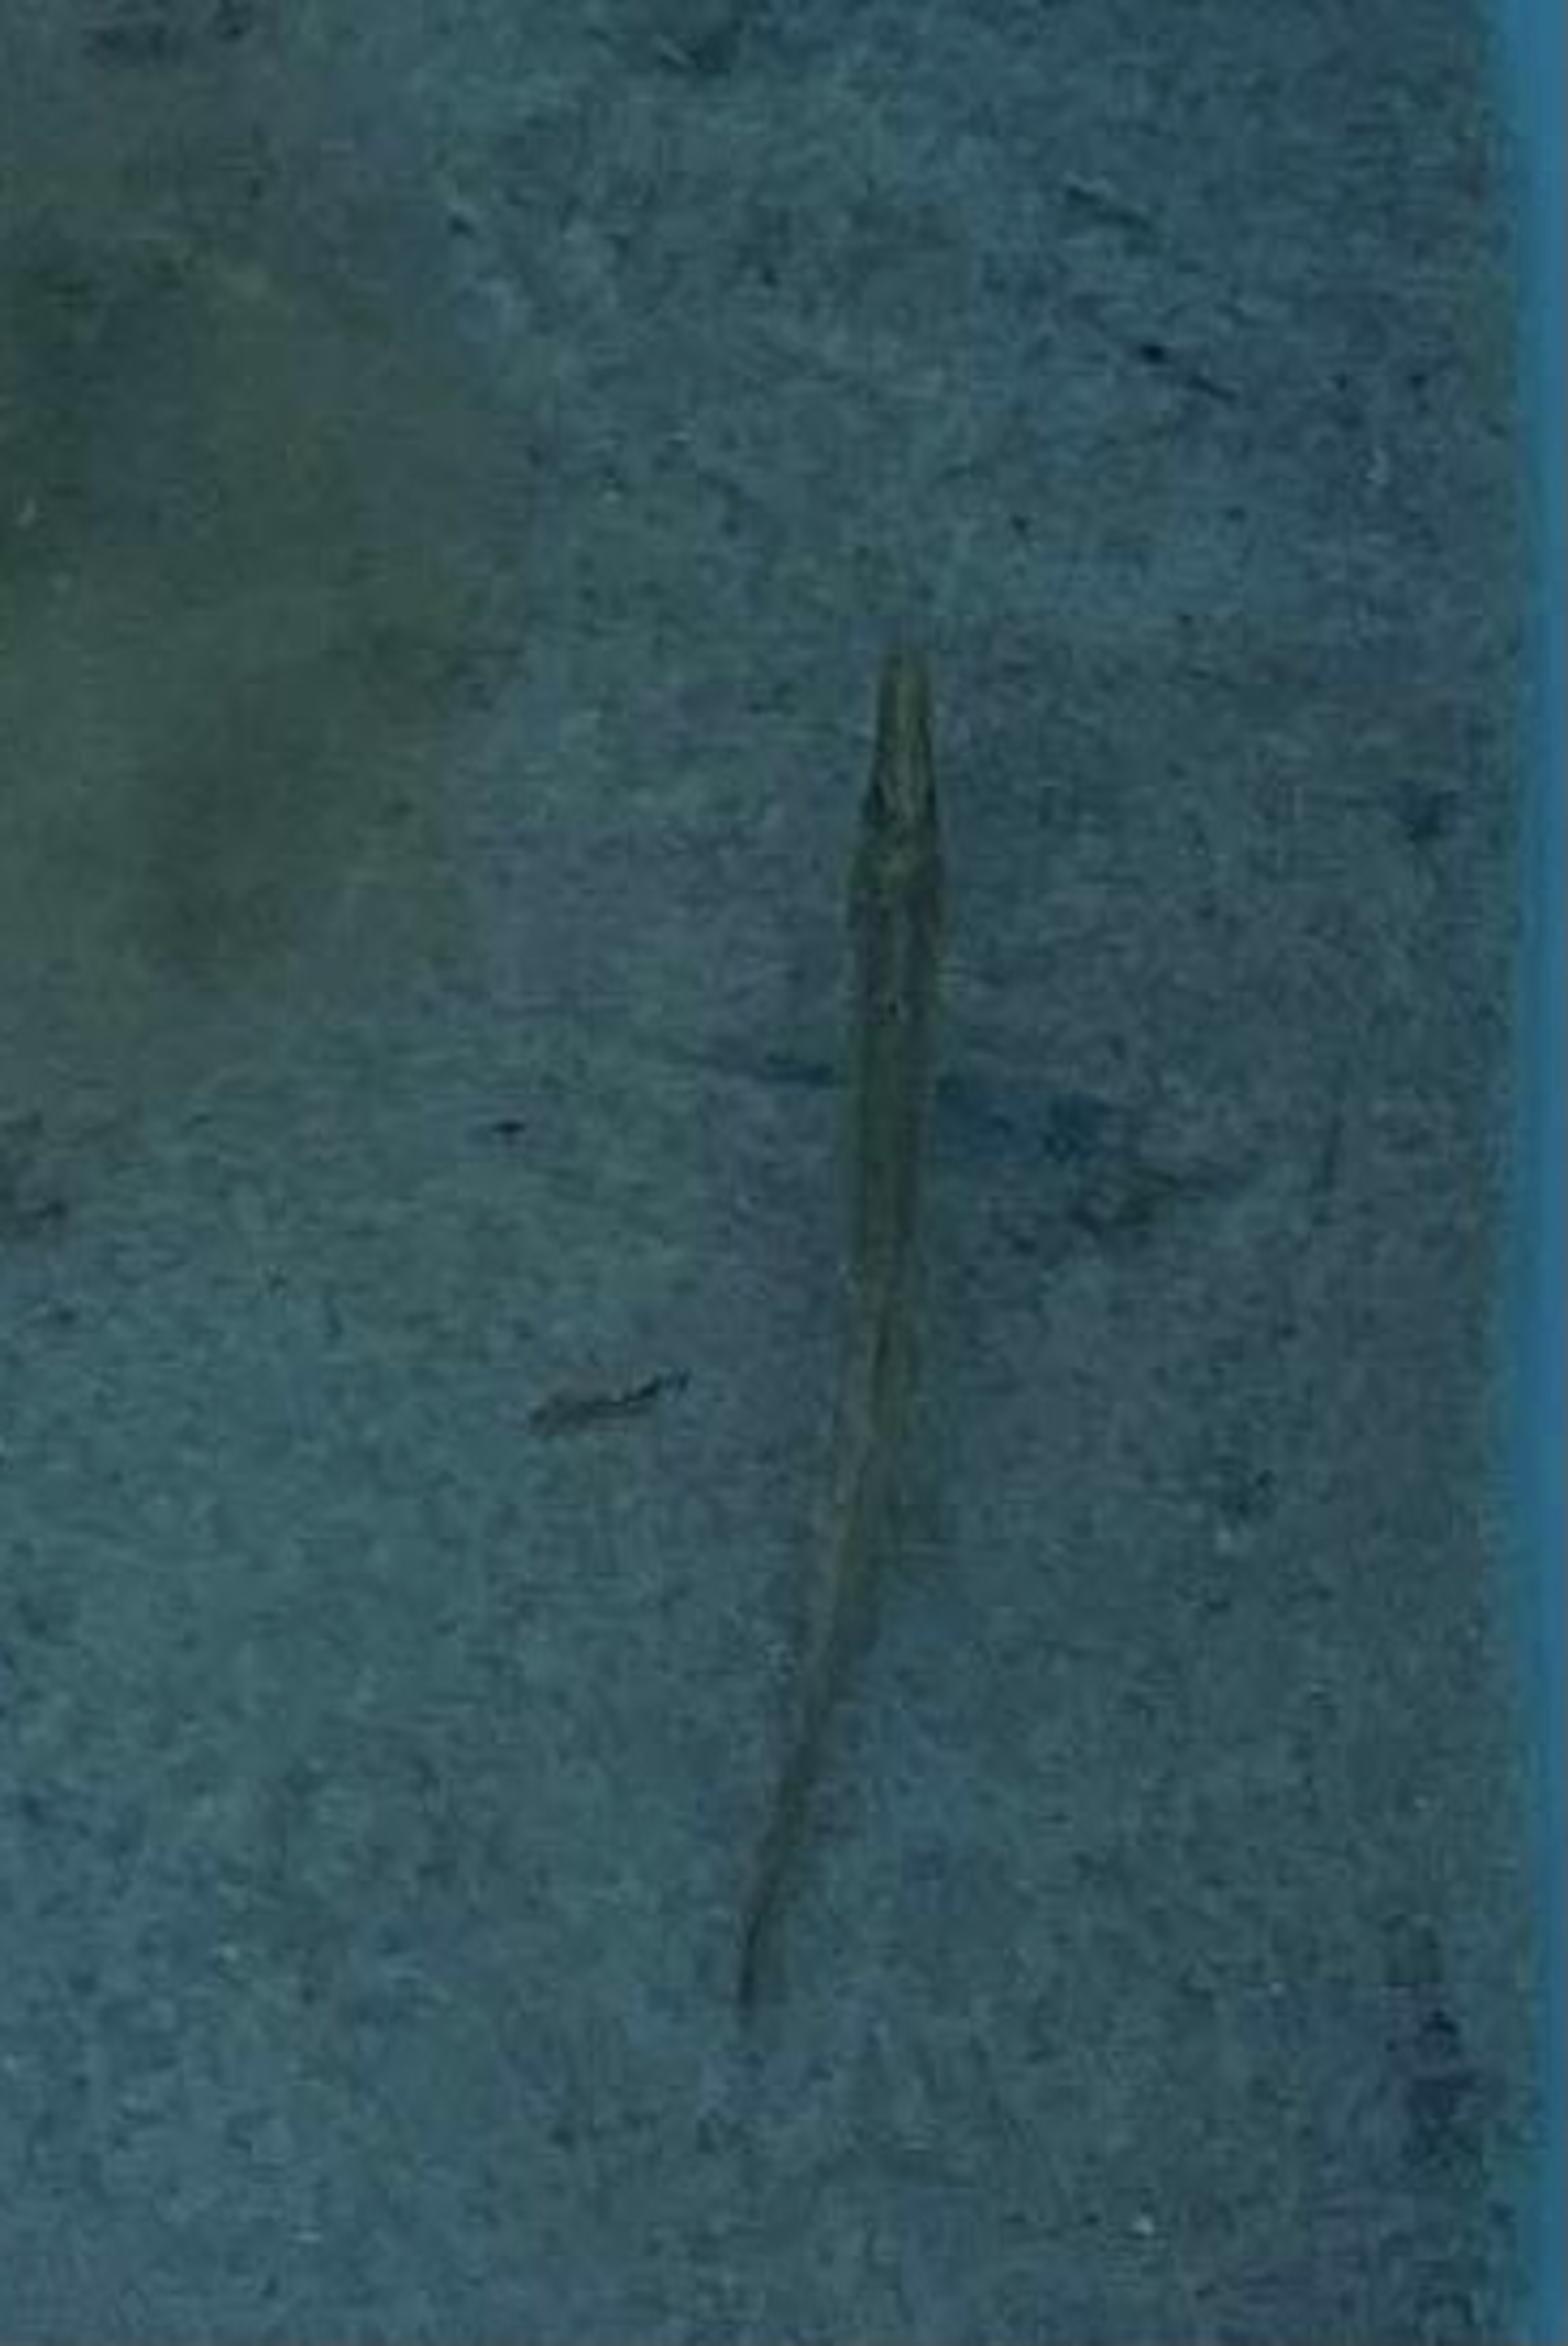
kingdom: Animalia
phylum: Chordata
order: Gasterosteiformes
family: Gasterosteidae
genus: Spinachia
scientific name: Spinachia spinachia
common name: Tangsnarre
